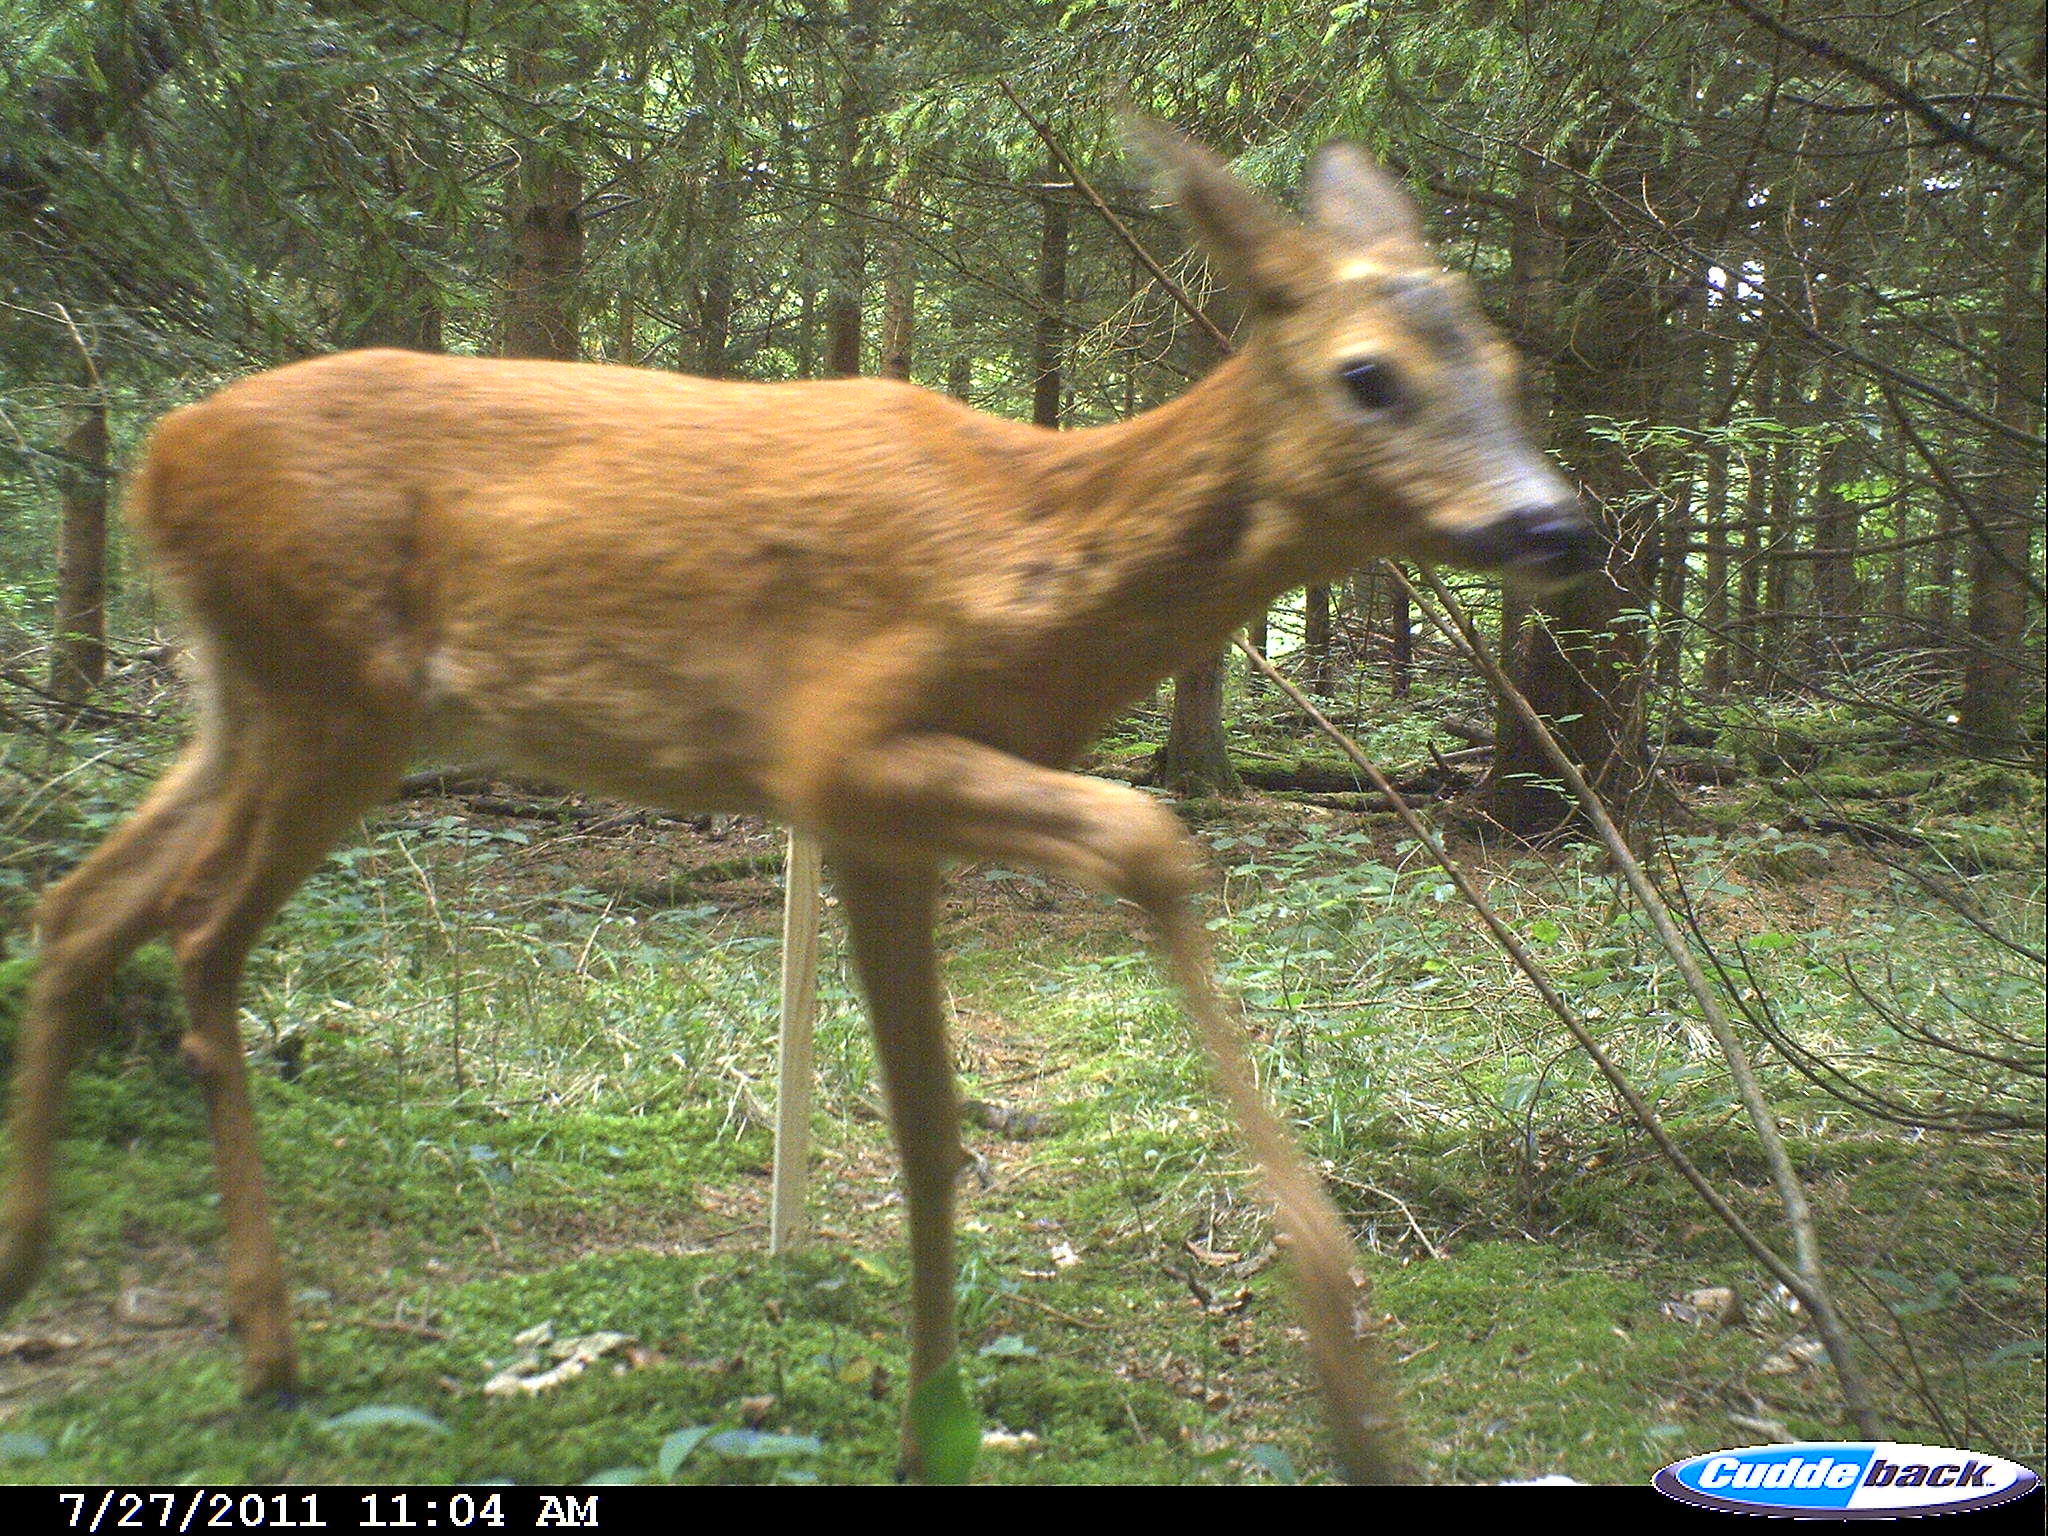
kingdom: Animalia
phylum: Chordata
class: Mammalia
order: Artiodactyla
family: Cervidae
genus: Capreolus
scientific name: Capreolus capreolus
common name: Western roe deer
